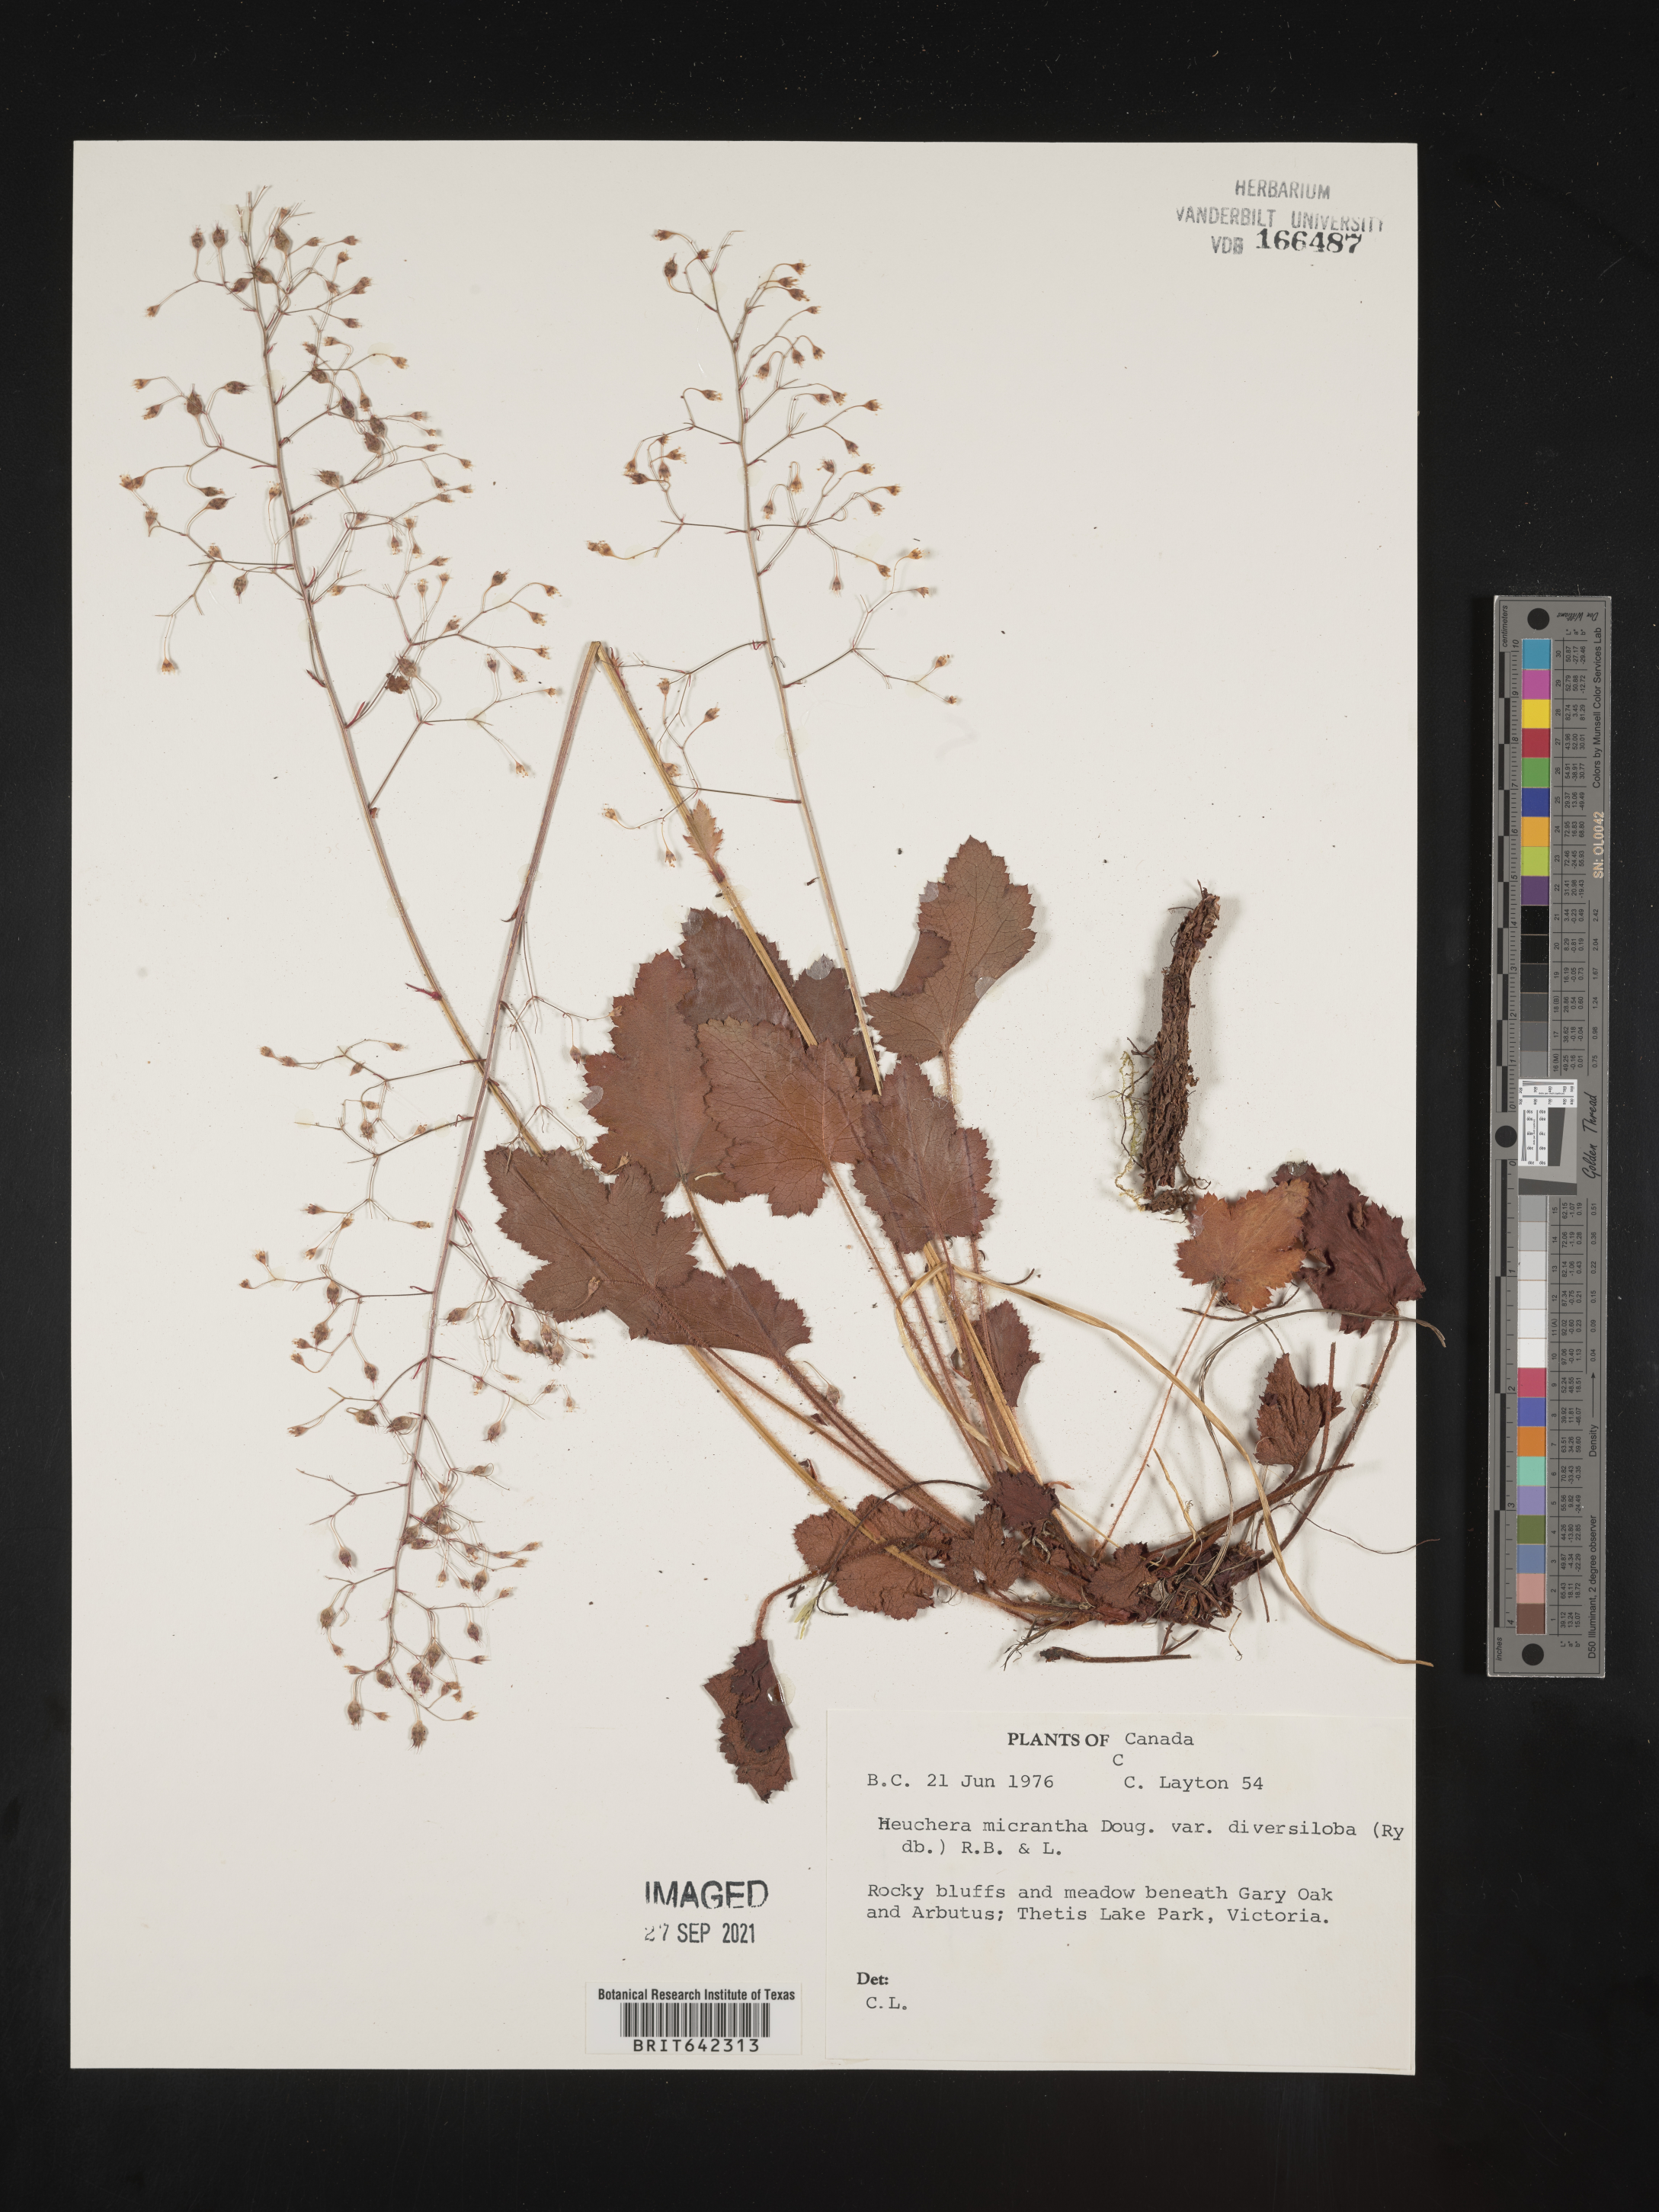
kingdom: Plantae
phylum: Tracheophyta
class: Magnoliopsida
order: Saxifragales
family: Saxifragaceae
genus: Heuchera
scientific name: Heuchera
